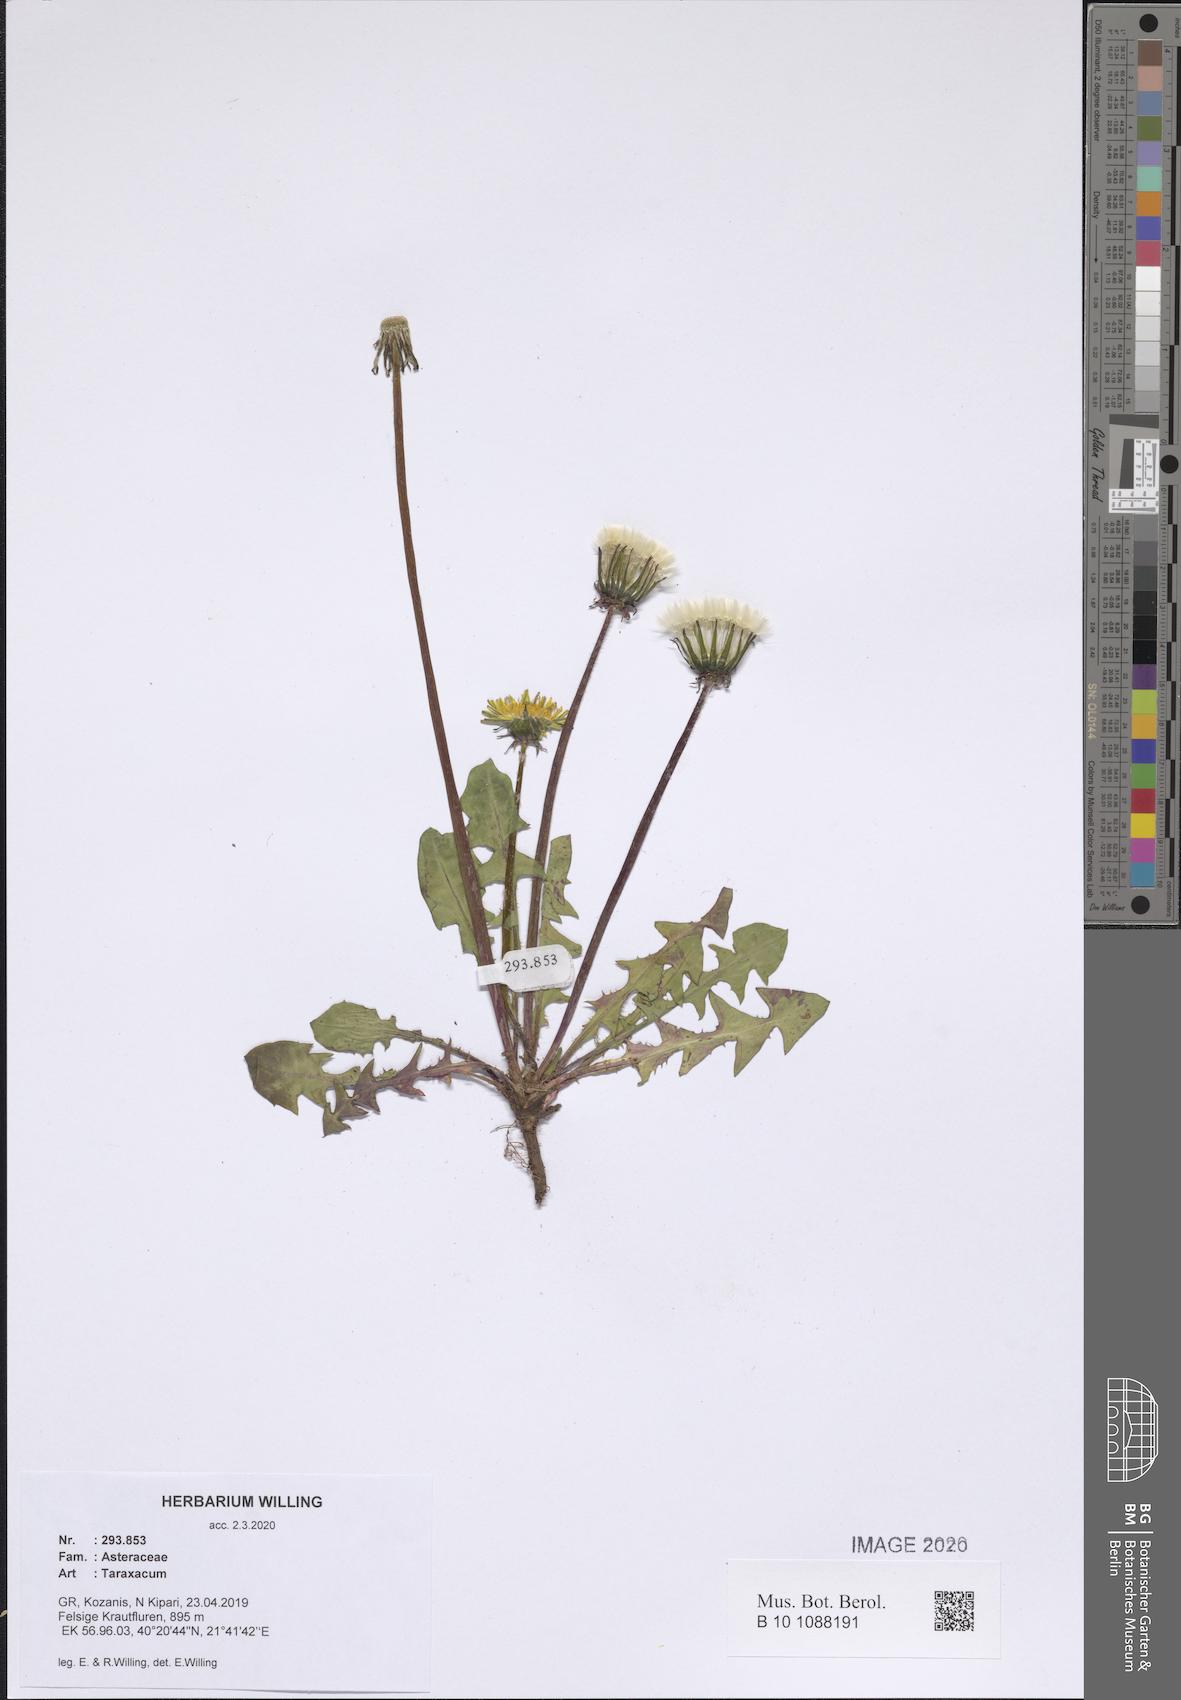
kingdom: Plantae
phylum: Tracheophyta
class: Magnoliopsida
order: Asterales
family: Asteraceae
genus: Taraxacum
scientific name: Taraxacum
